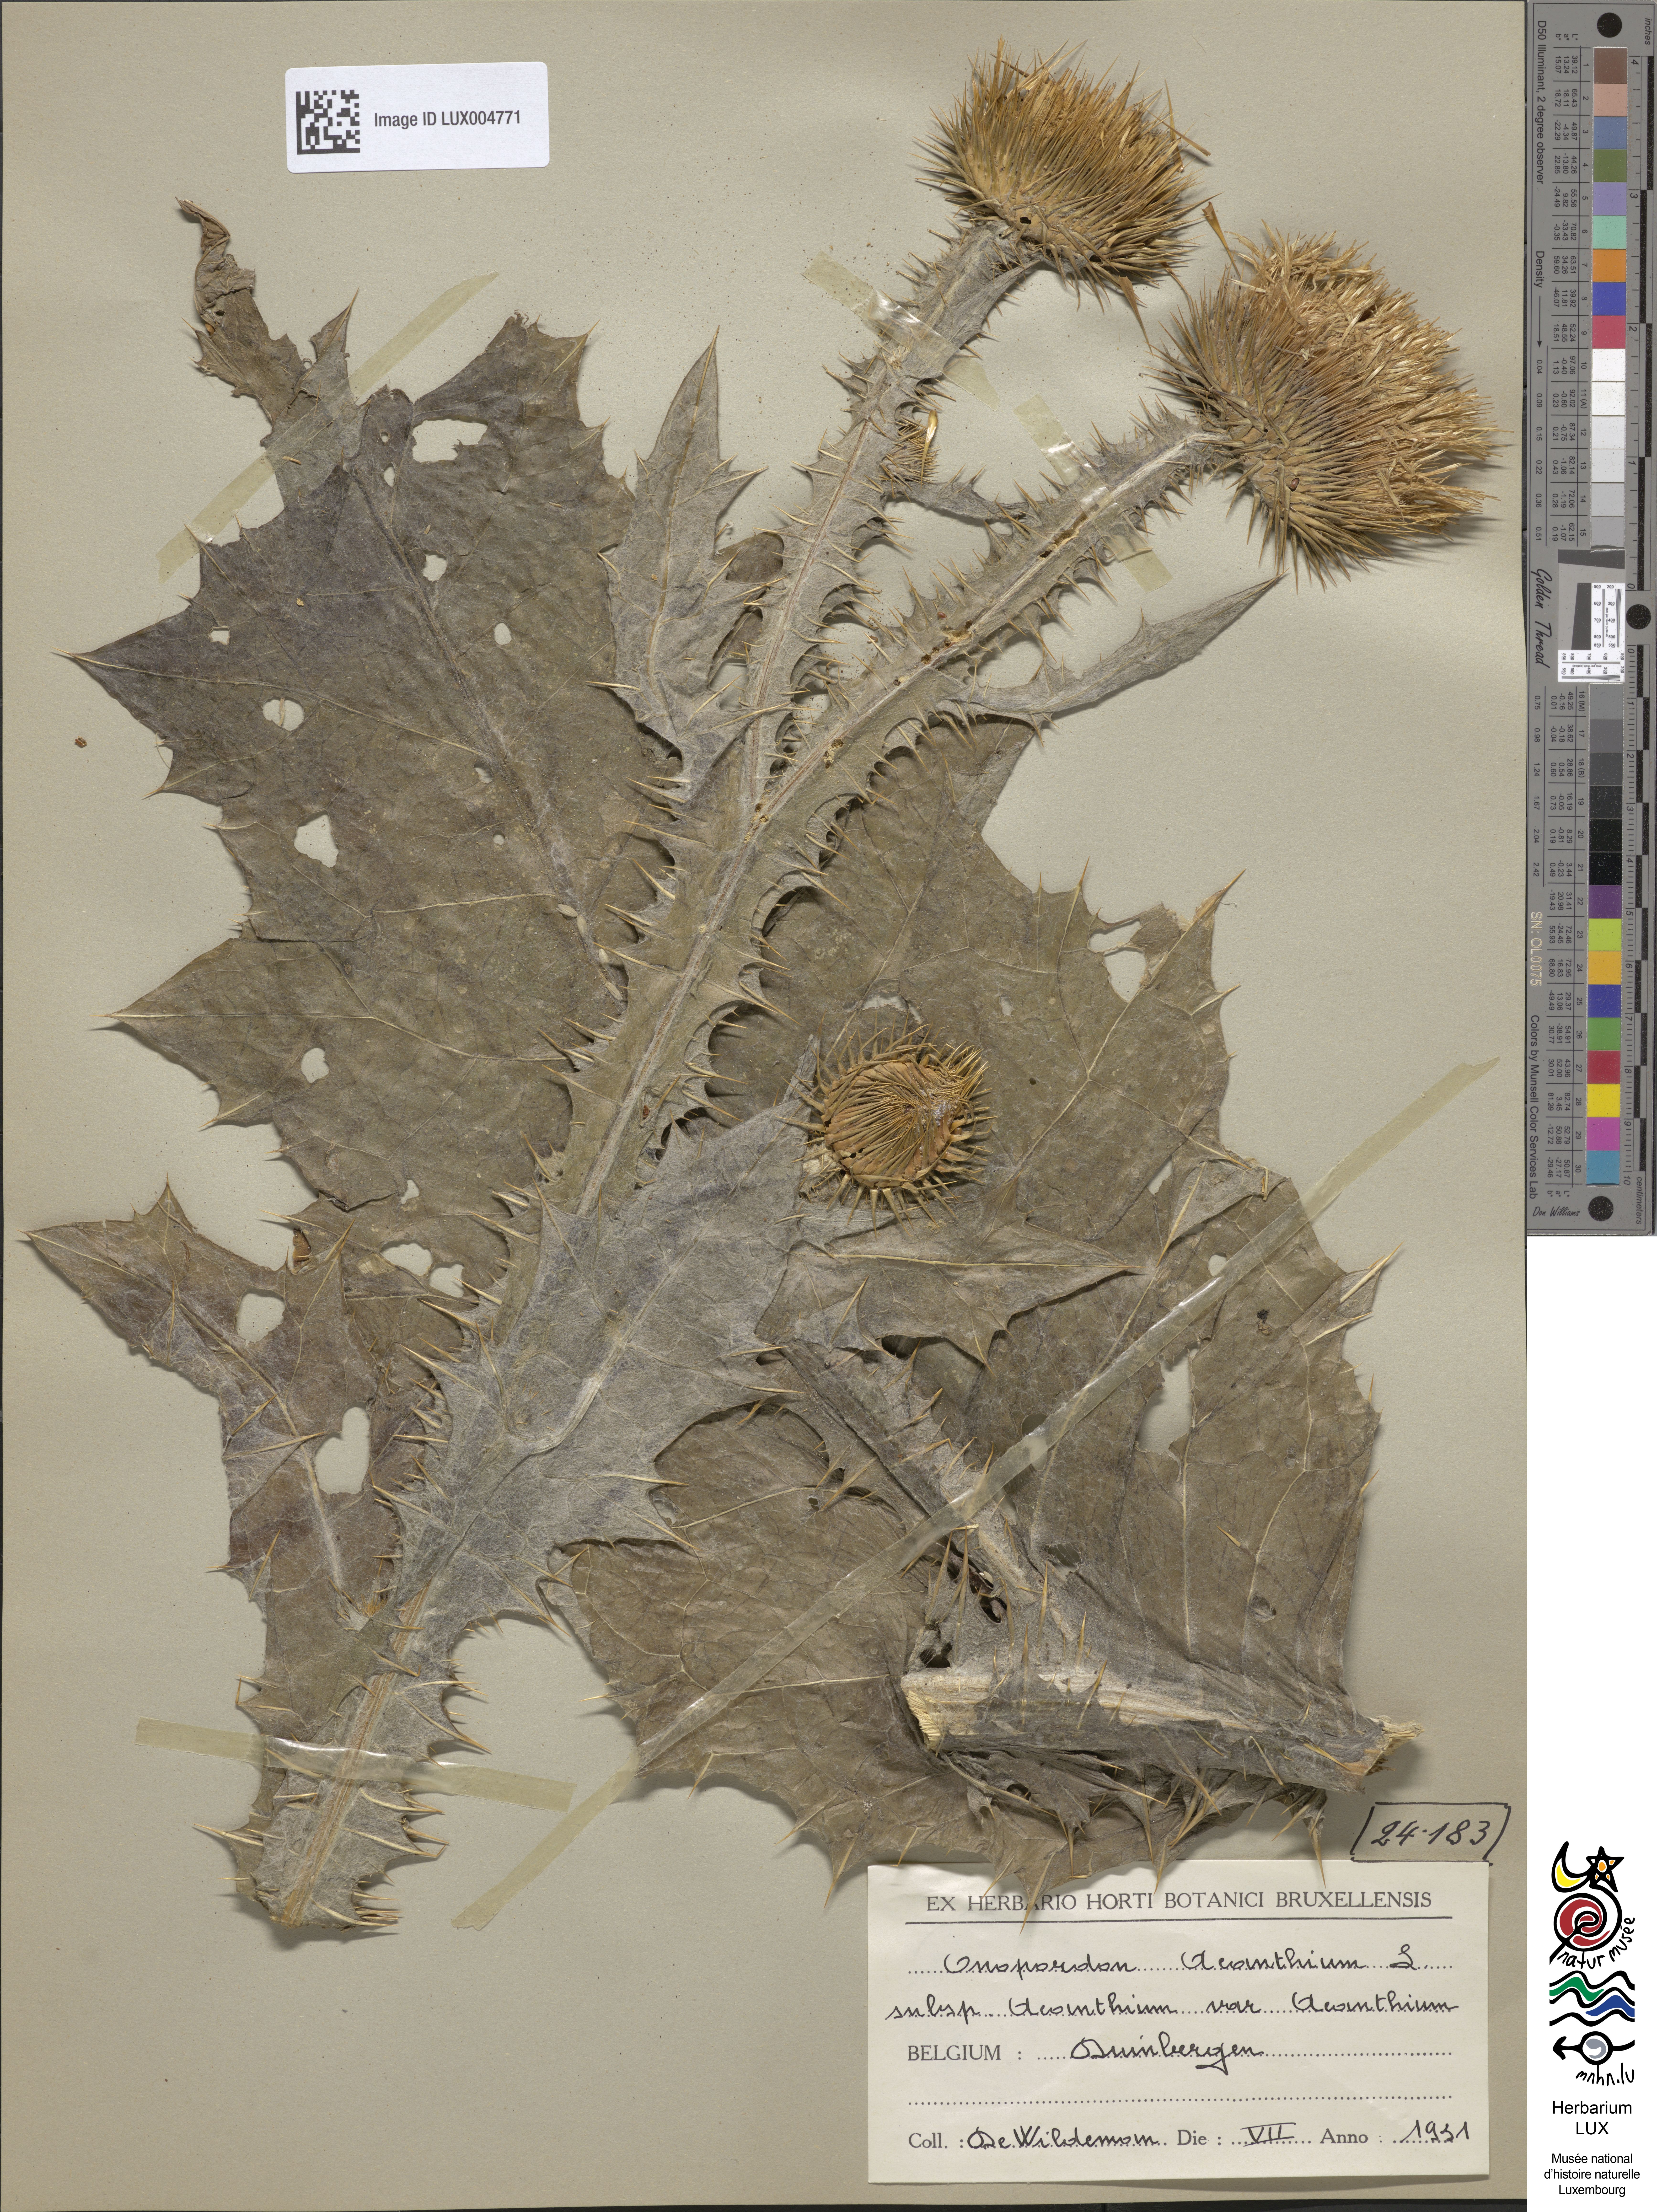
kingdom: Plantae
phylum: Tracheophyta
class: Magnoliopsida
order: Asterales
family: Asteraceae
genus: Onopordum
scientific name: Onopordum acanthium
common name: Scotch thistle
